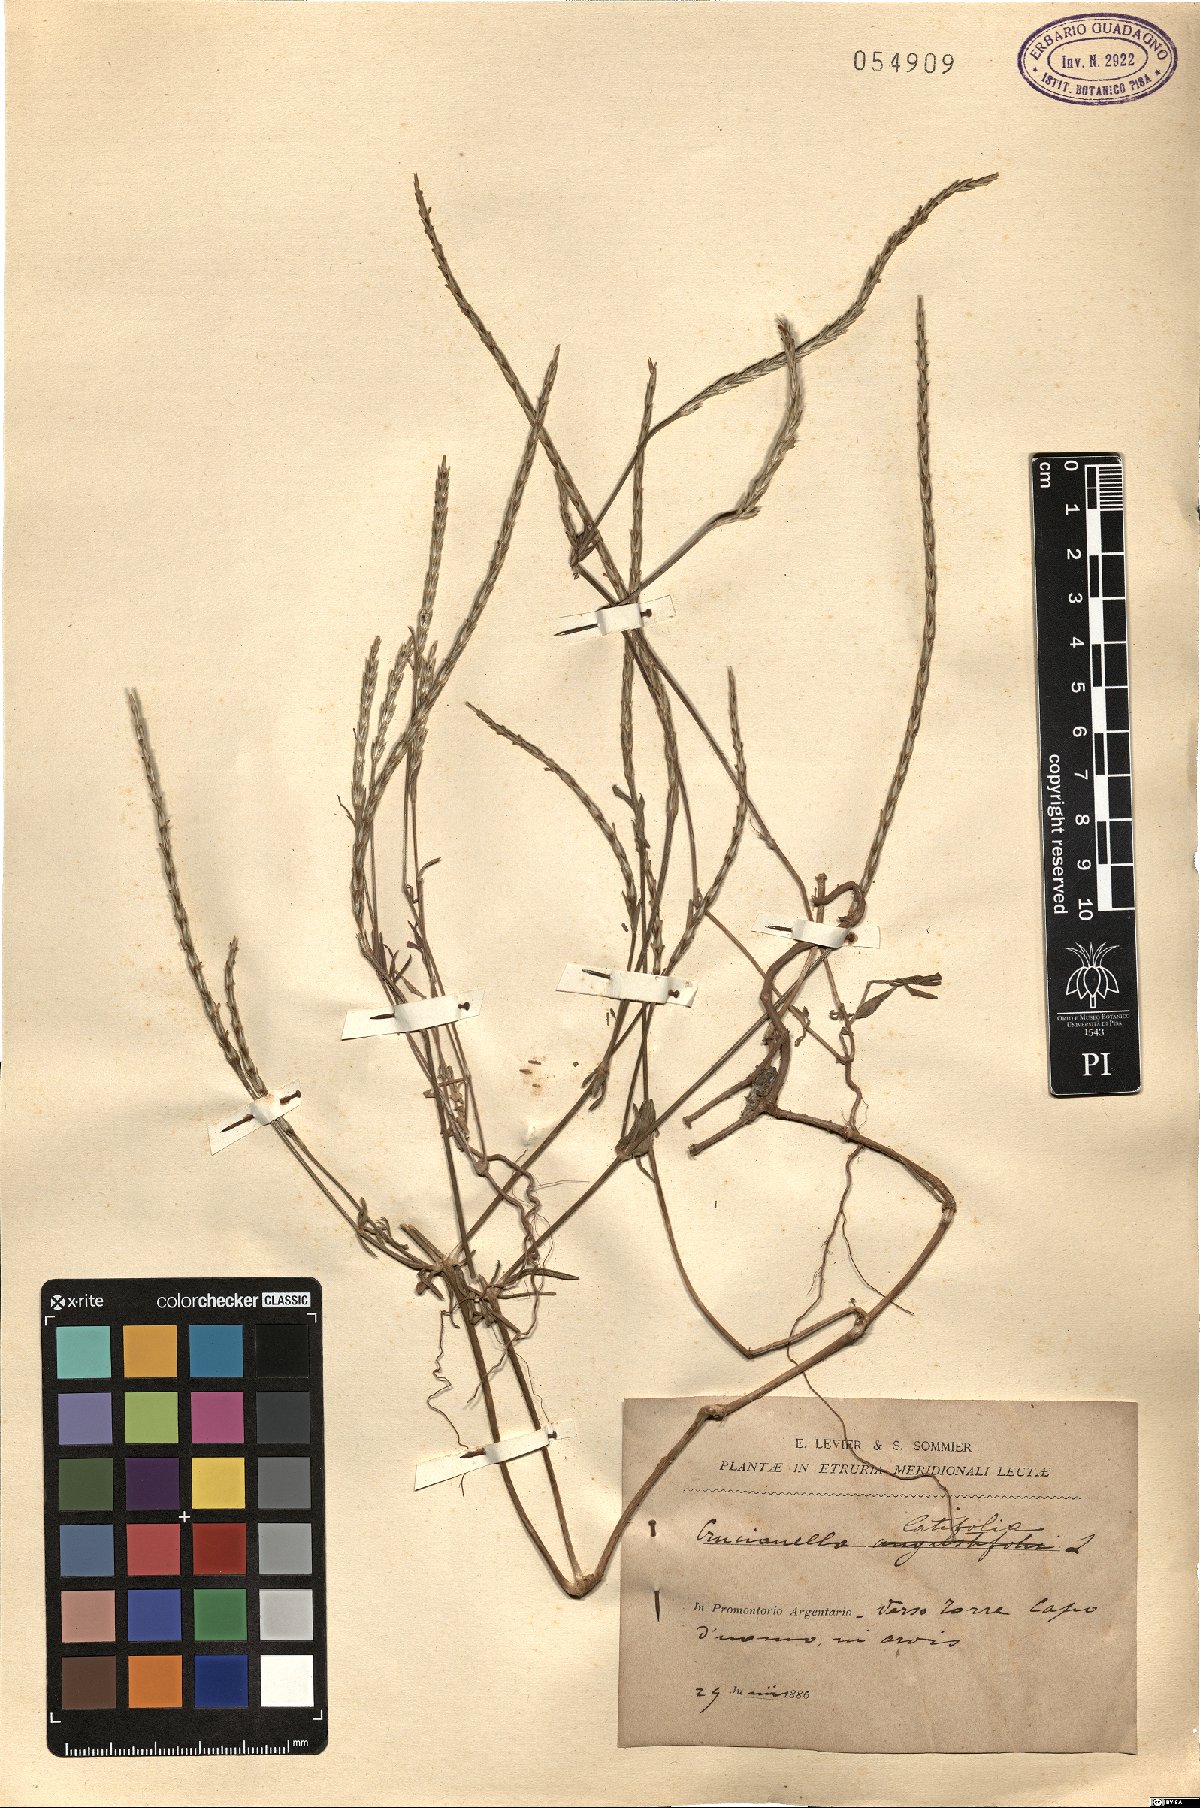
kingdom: Plantae
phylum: Tracheophyta
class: Magnoliopsida
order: Gentianales
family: Rubiaceae
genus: Crucianella
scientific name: Crucianella latifolia
